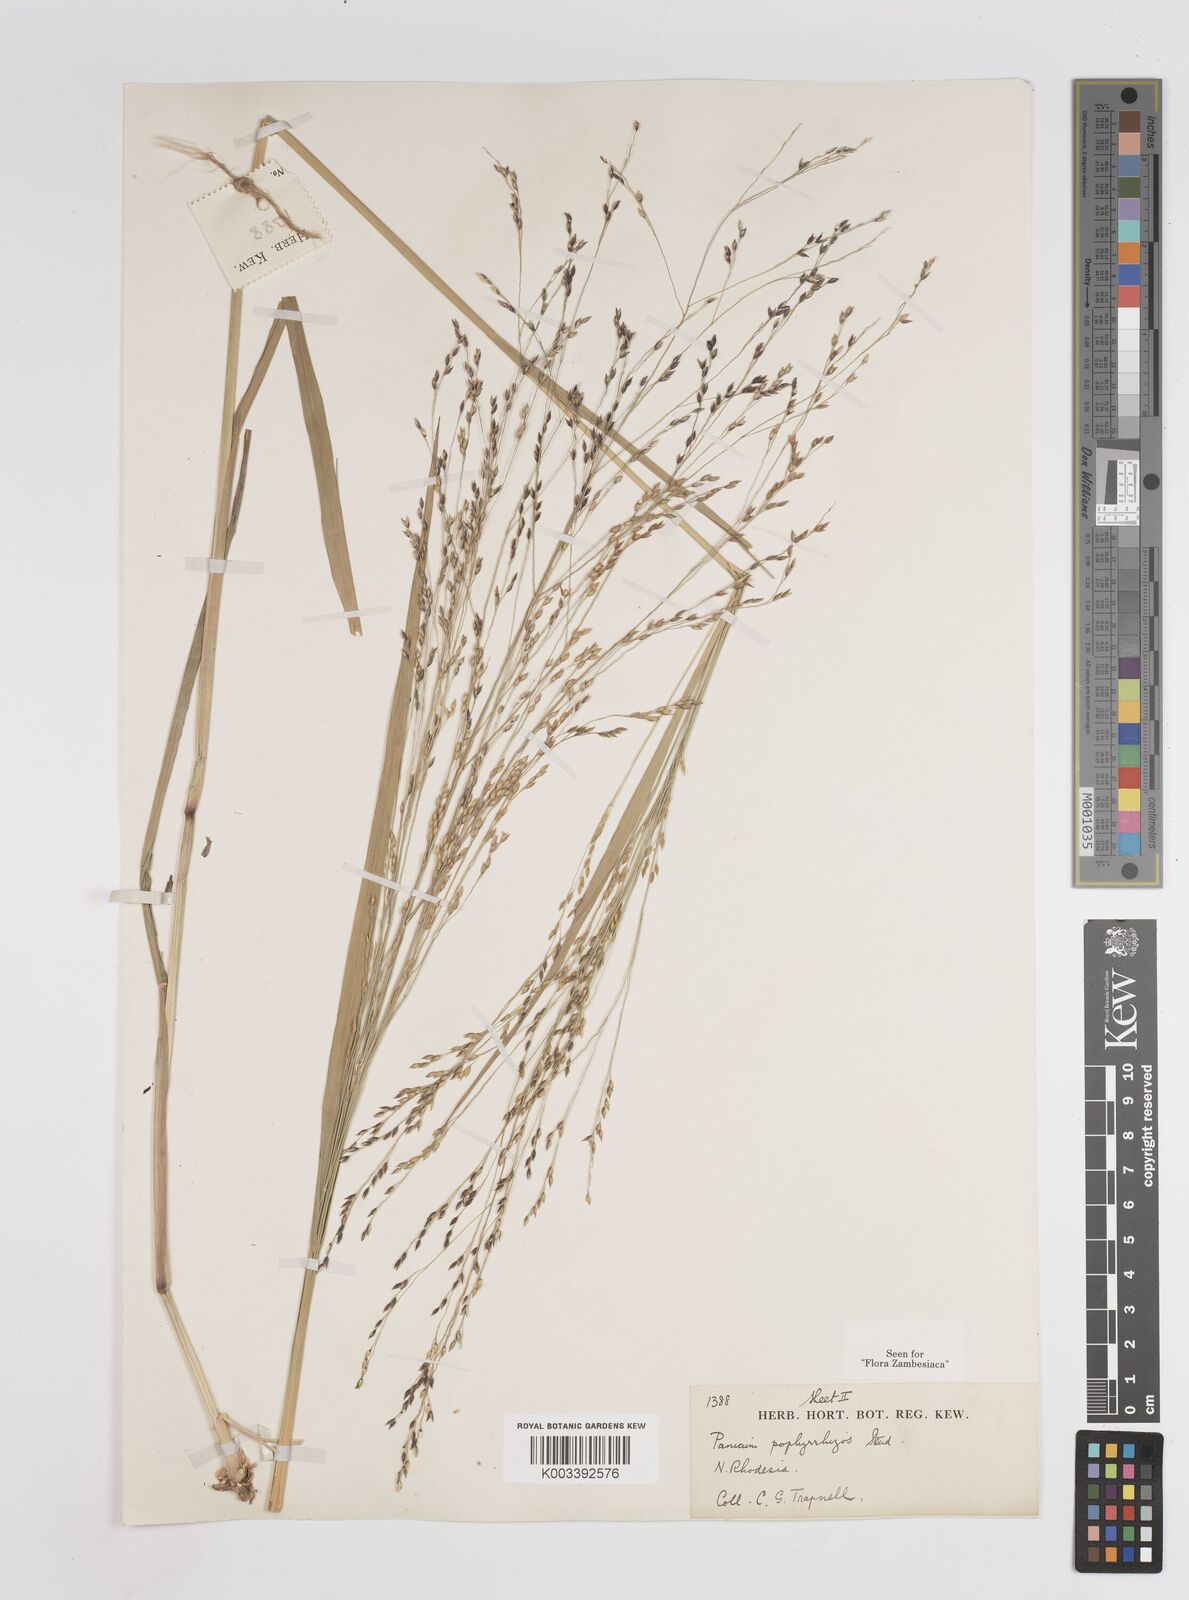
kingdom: Plantae
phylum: Tracheophyta
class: Liliopsida
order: Poales
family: Poaceae
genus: Panicum
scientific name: Panicum porphyrrhizos
